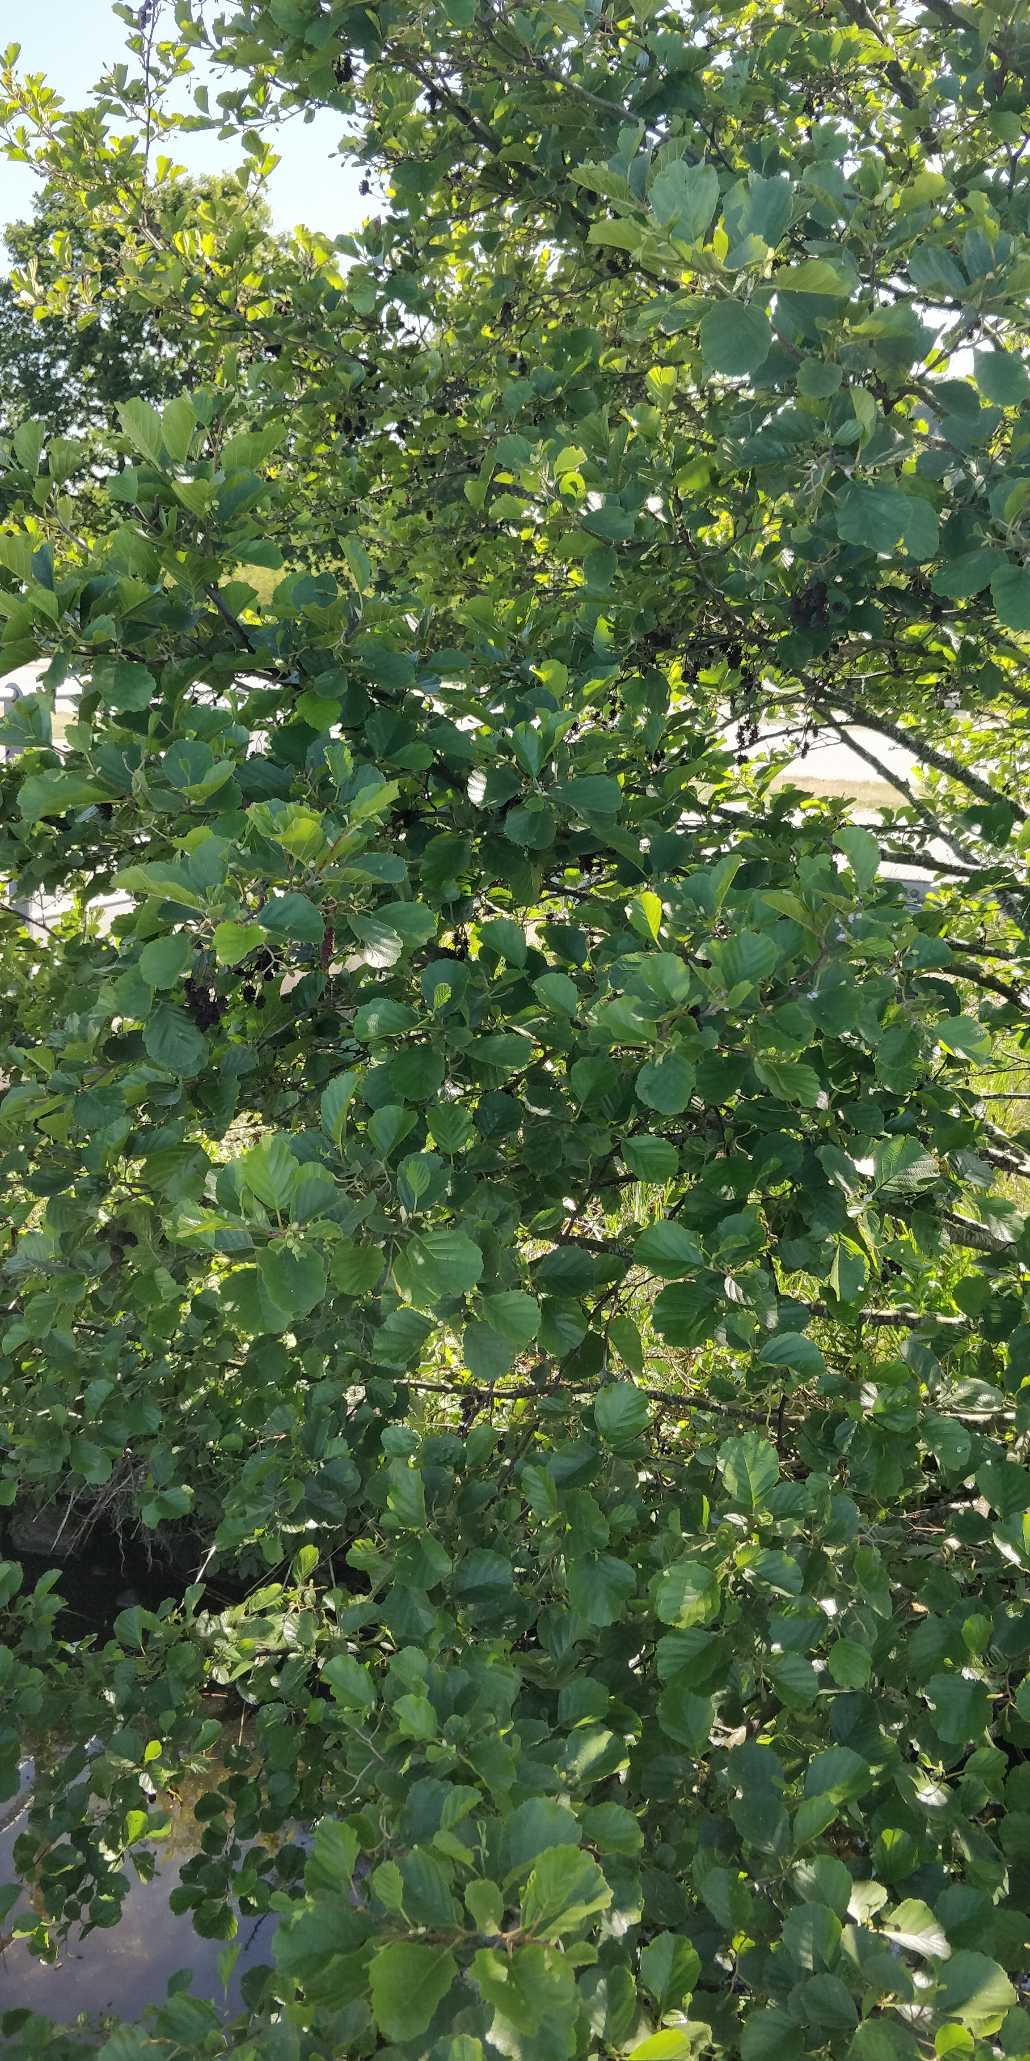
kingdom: Plantae
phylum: Tracheophyta
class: Magnoliopsida
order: Fagales
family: Betulaceae
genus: Alnus
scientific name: Alnus glutinosa
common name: Rød-el
